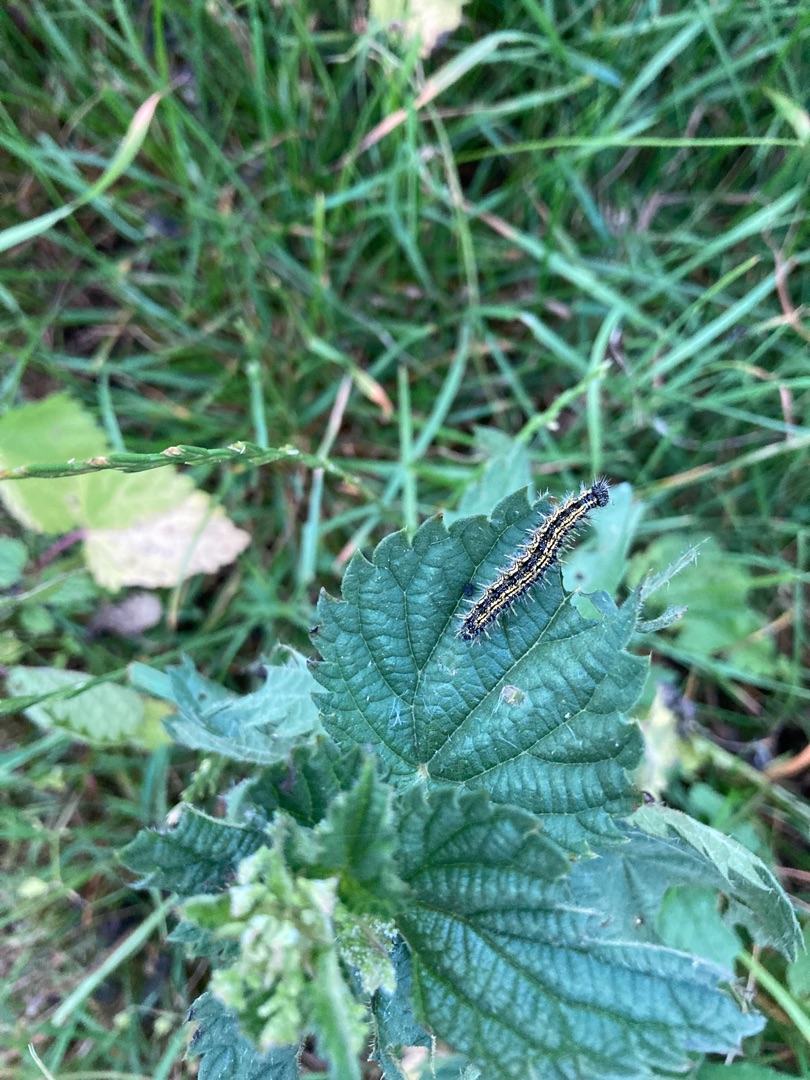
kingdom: Animalia
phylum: Arthropoda
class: Insecta
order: Lepidoptera
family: Nymphalidae
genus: Aglais
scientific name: Aglais urticae
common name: Nældens takvinge
